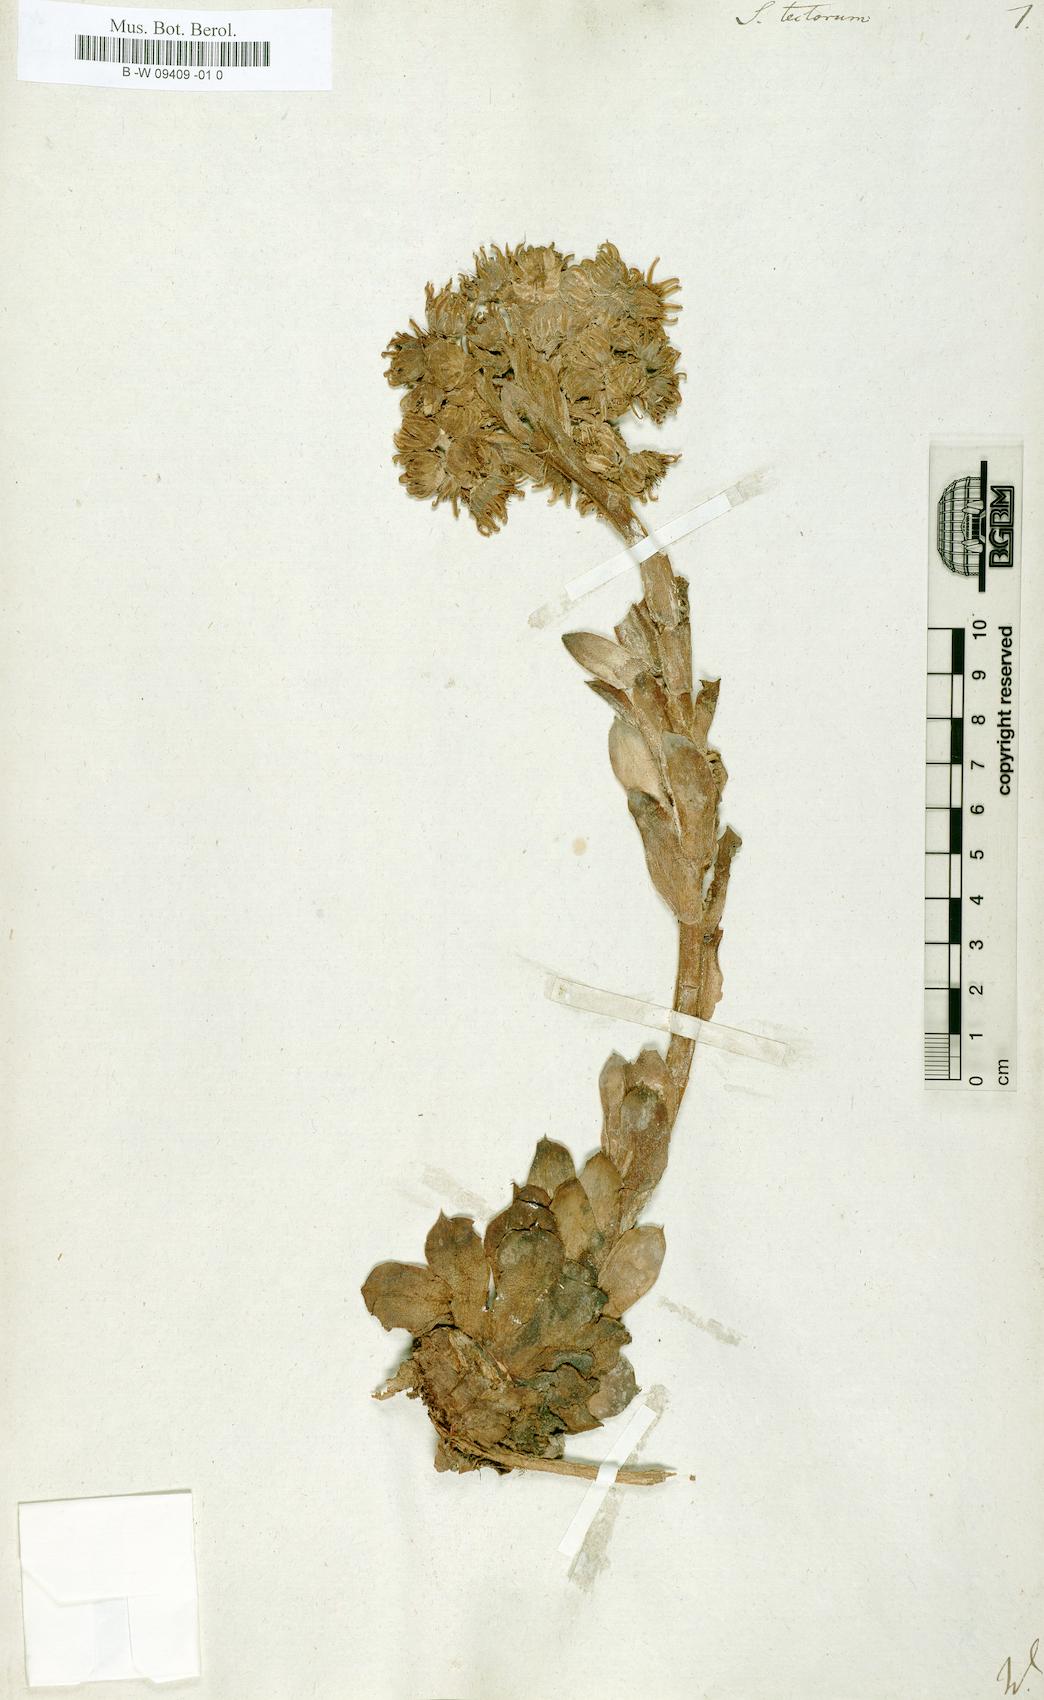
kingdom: Plantae
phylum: Tracheophyta
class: Magnoliopsida
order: Saxifragales
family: Crassulaceae
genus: Sempervivum
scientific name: Sempervivum tectorum
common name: House-leek
